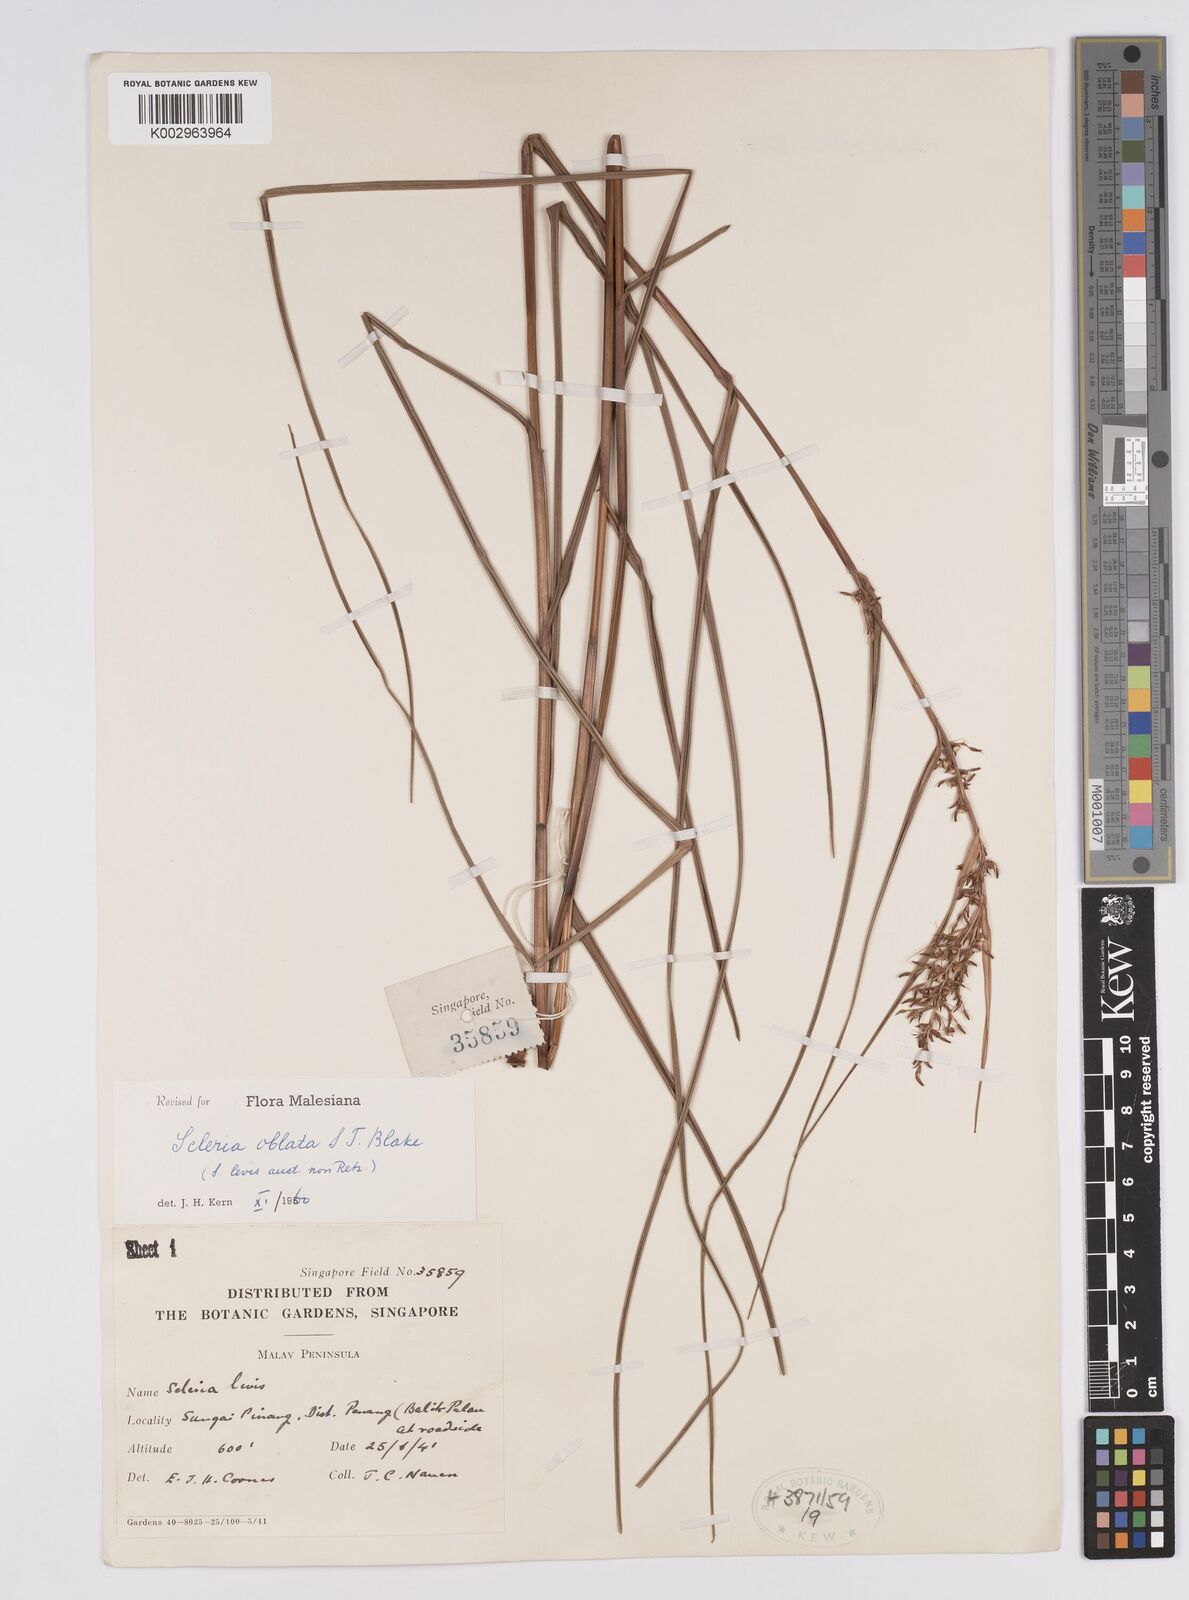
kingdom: Plantae
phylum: Tracheophyta
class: Liliopsida
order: Poales
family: Cyperaceae
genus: Scleria
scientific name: Scleria oblata
